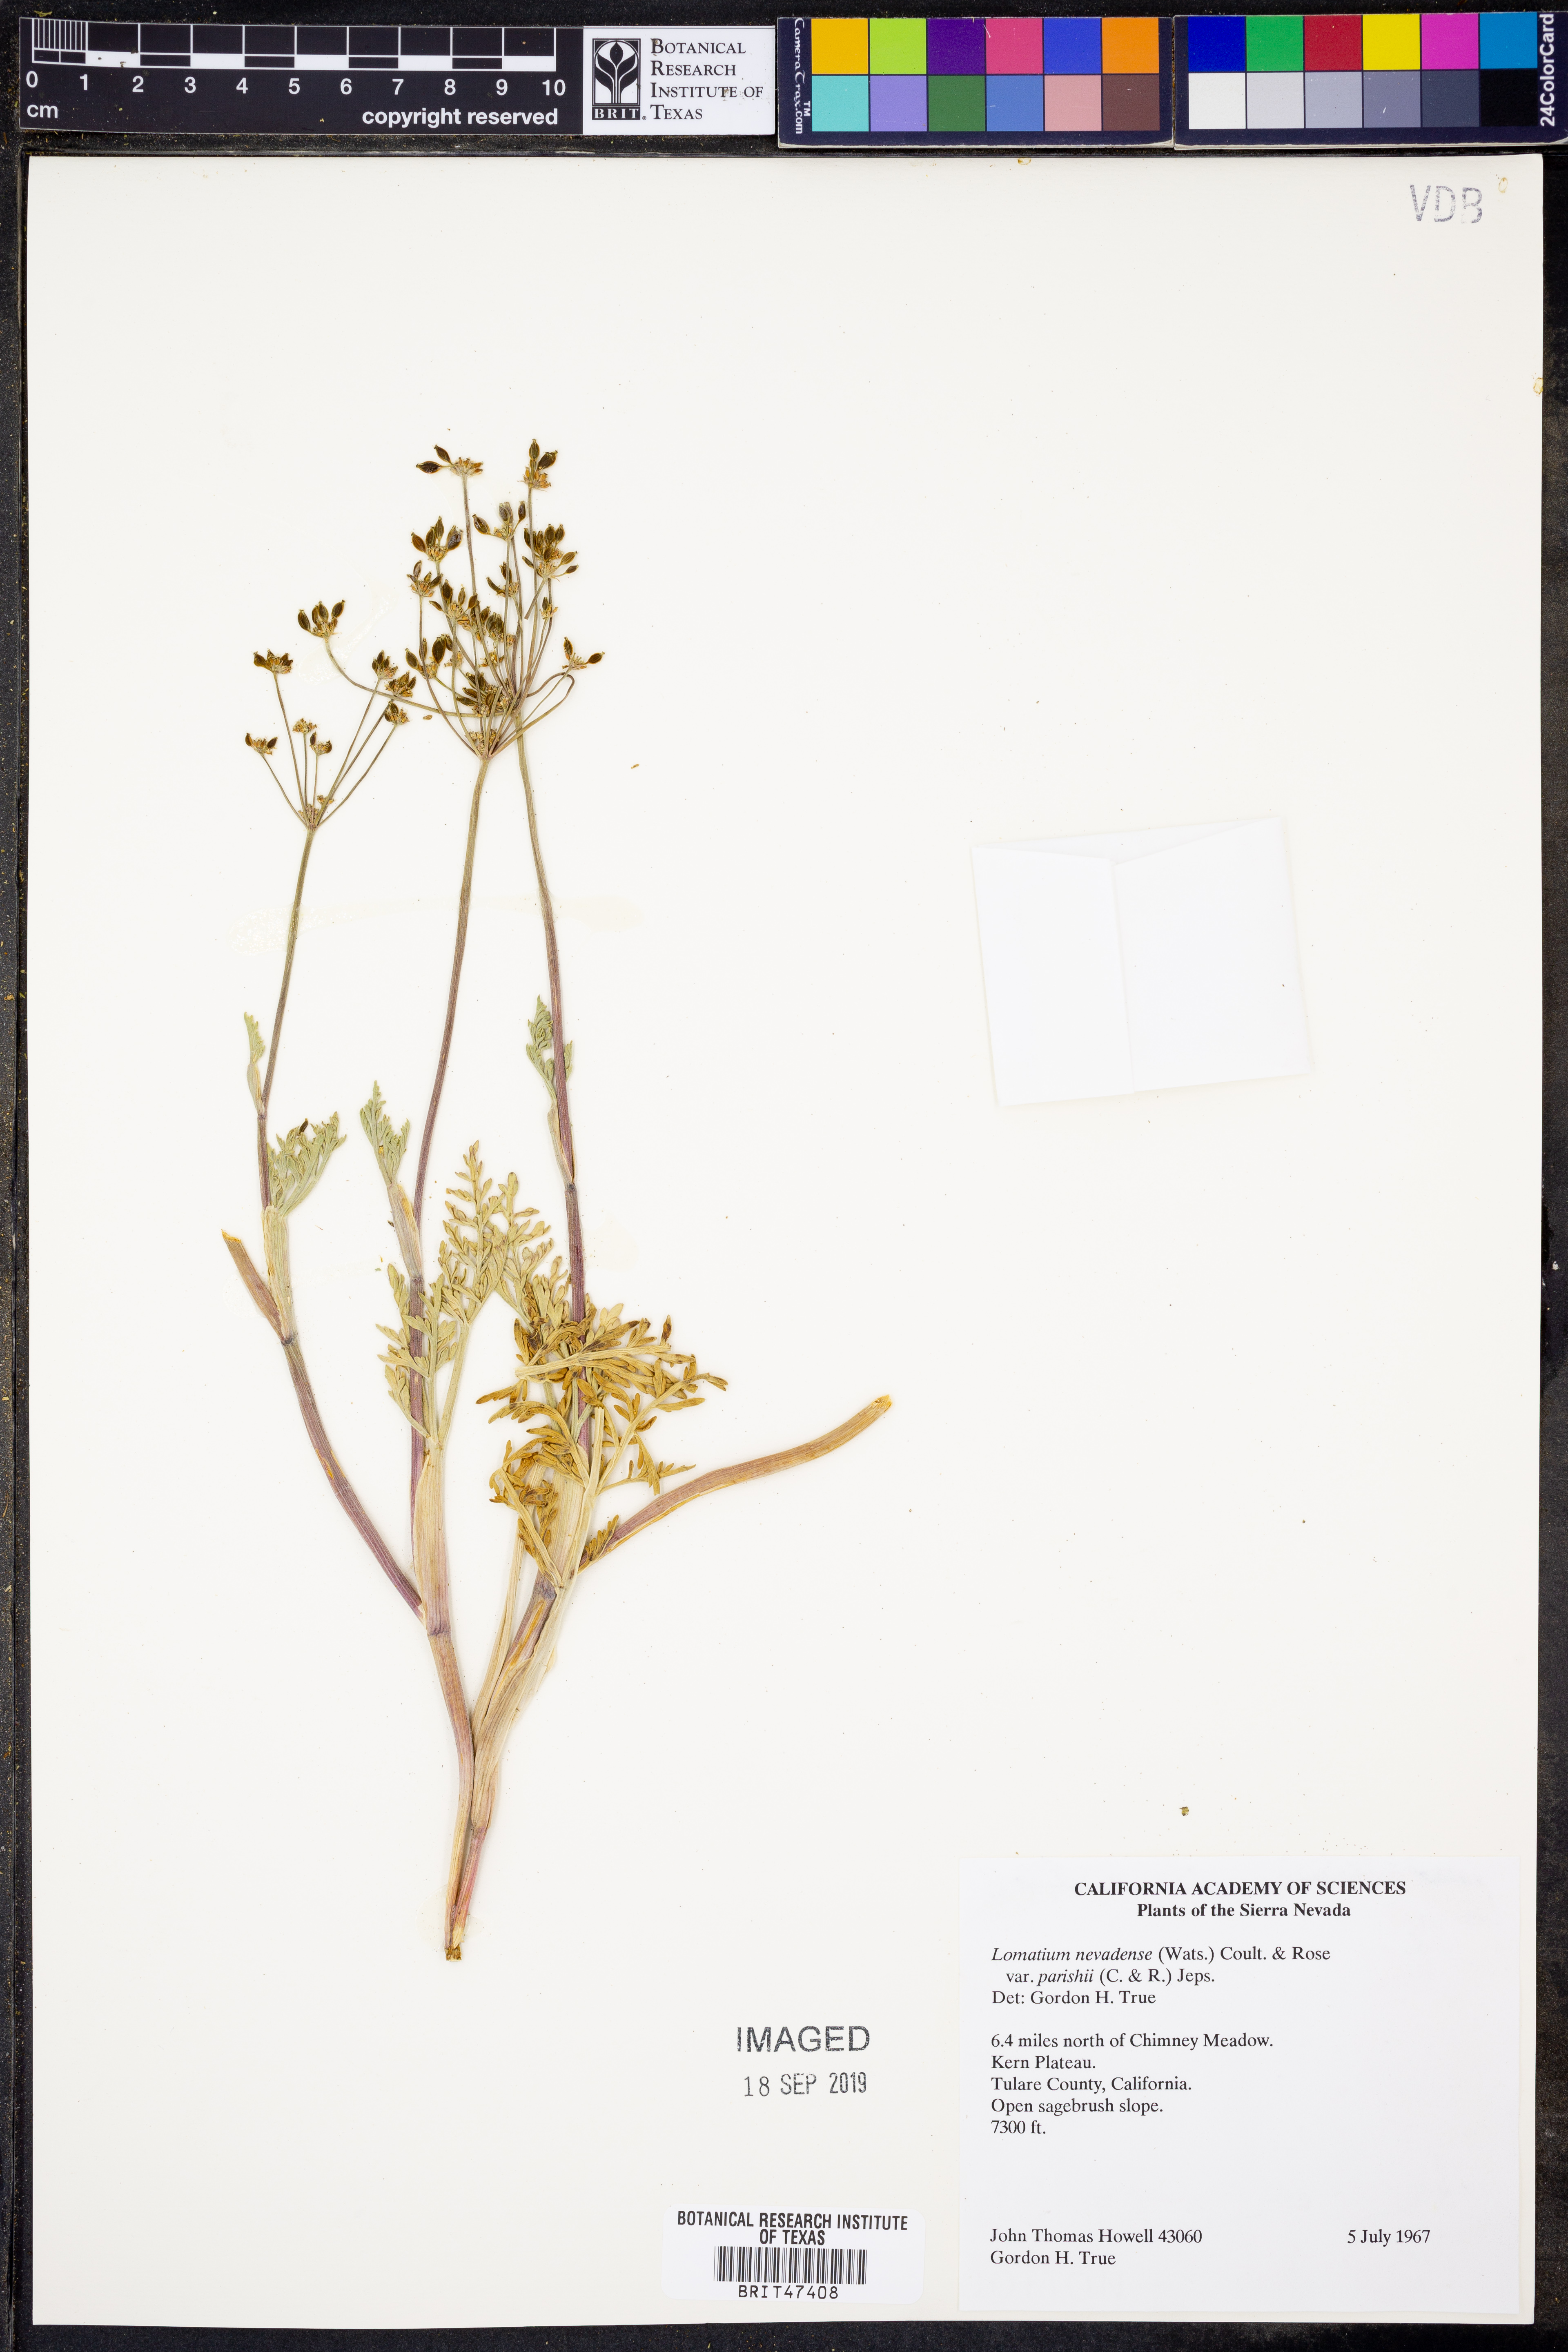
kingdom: Plantae
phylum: Tracheophyta
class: Magnoliopsida
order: Apiales
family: Apiaceae
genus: Lomatium
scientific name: Lomatium nevadense
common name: Nevada lomatium
